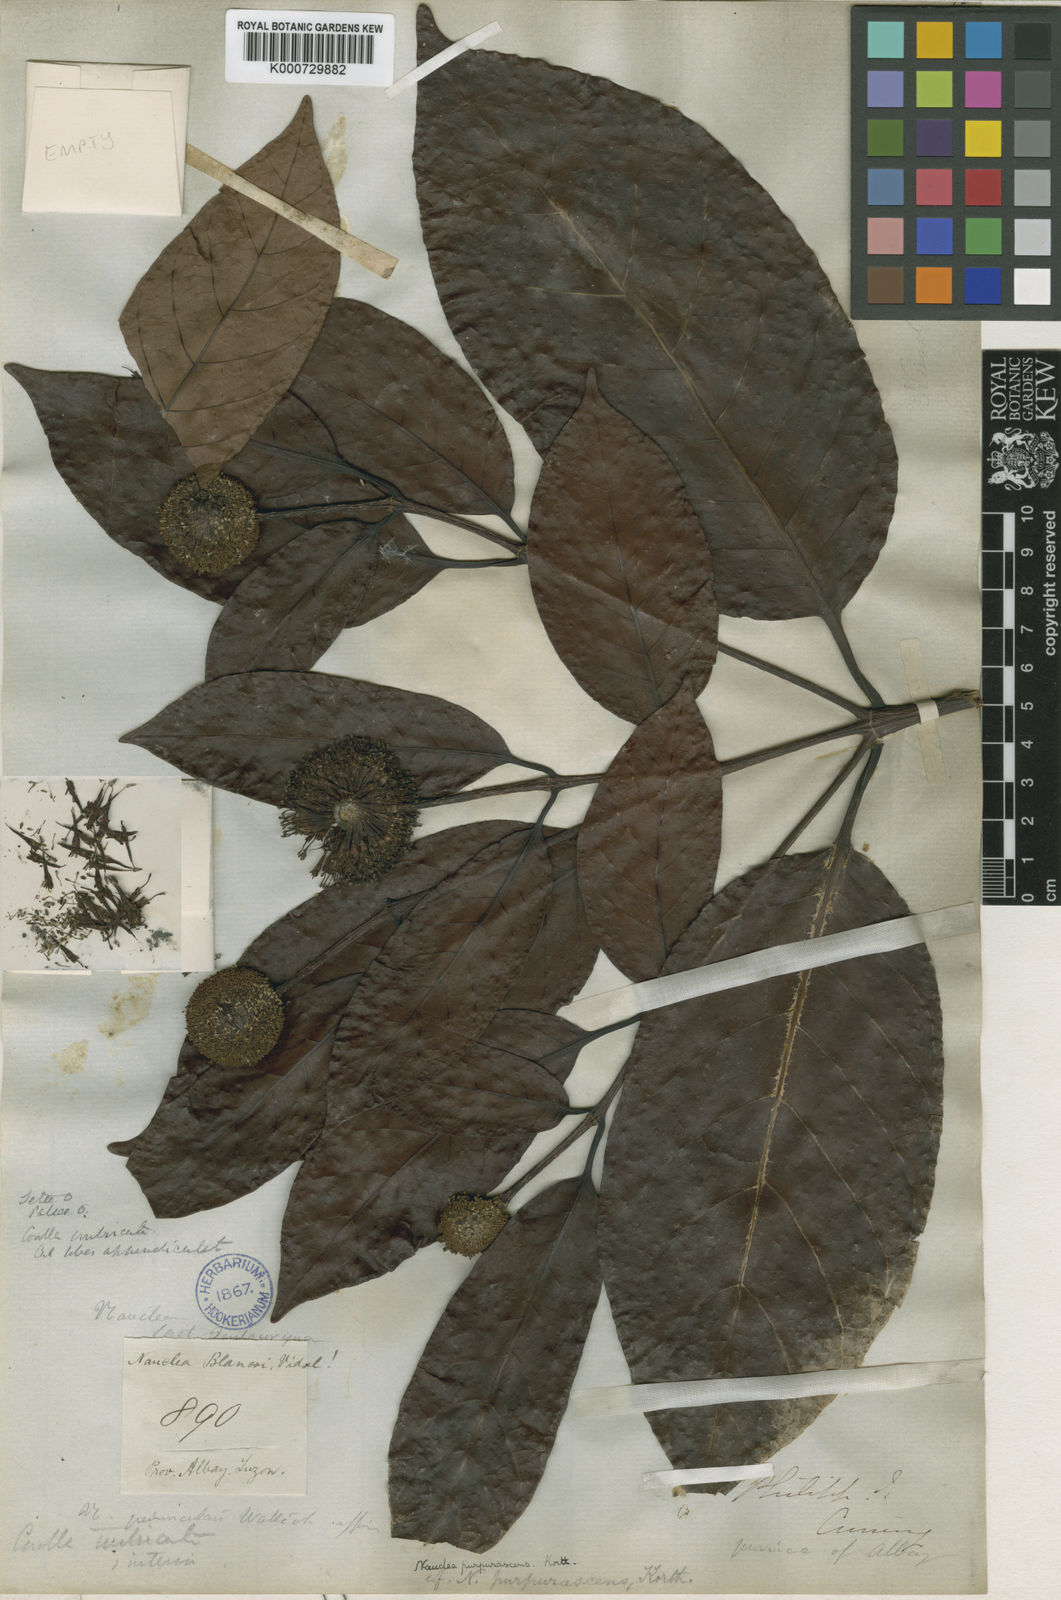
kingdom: Plantae
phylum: Tracheophyta
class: Magnoliopsida
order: Gentianales
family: Rubiaceae
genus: Neonauclea
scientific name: Neonauclea calycina
